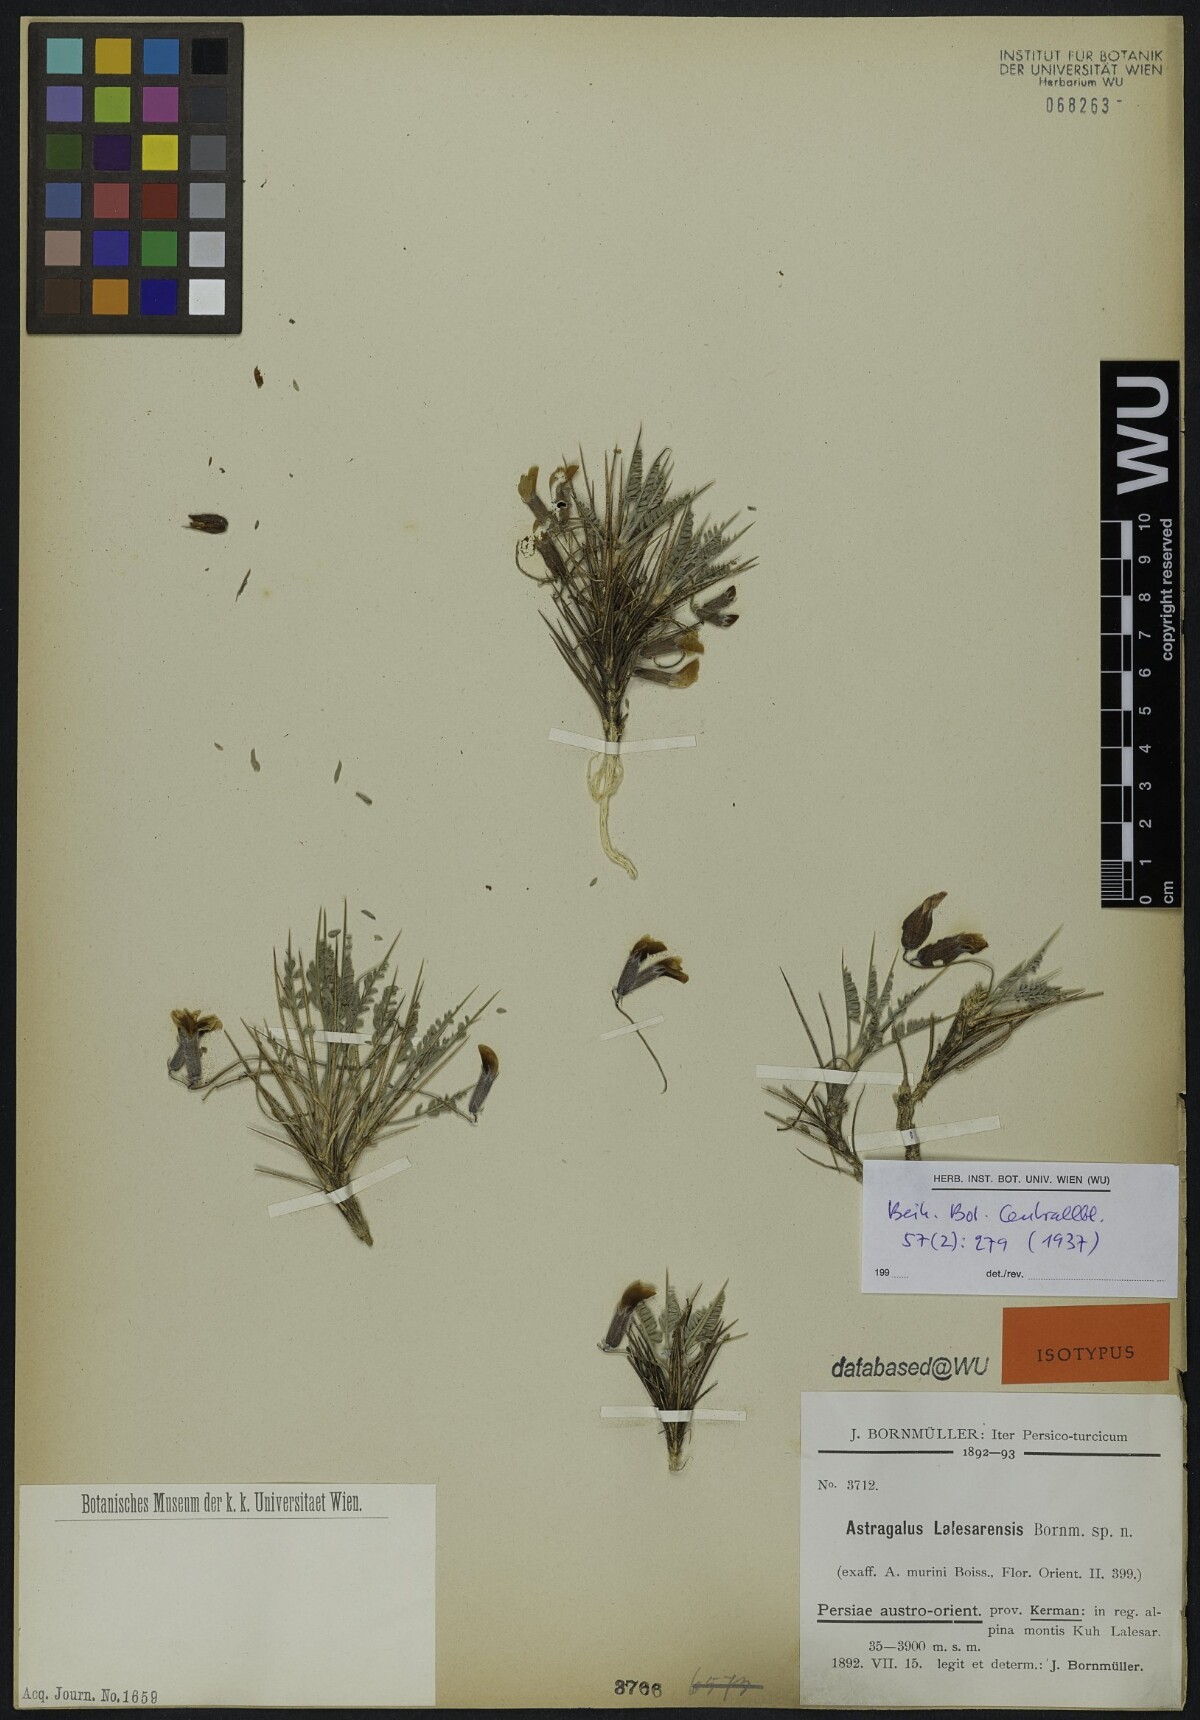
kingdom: Plantae
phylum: Tracheophyta
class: Magnoliopsida
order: Fabales
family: Fabaceae
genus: Astragalus
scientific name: Astragalus lalesarensis
